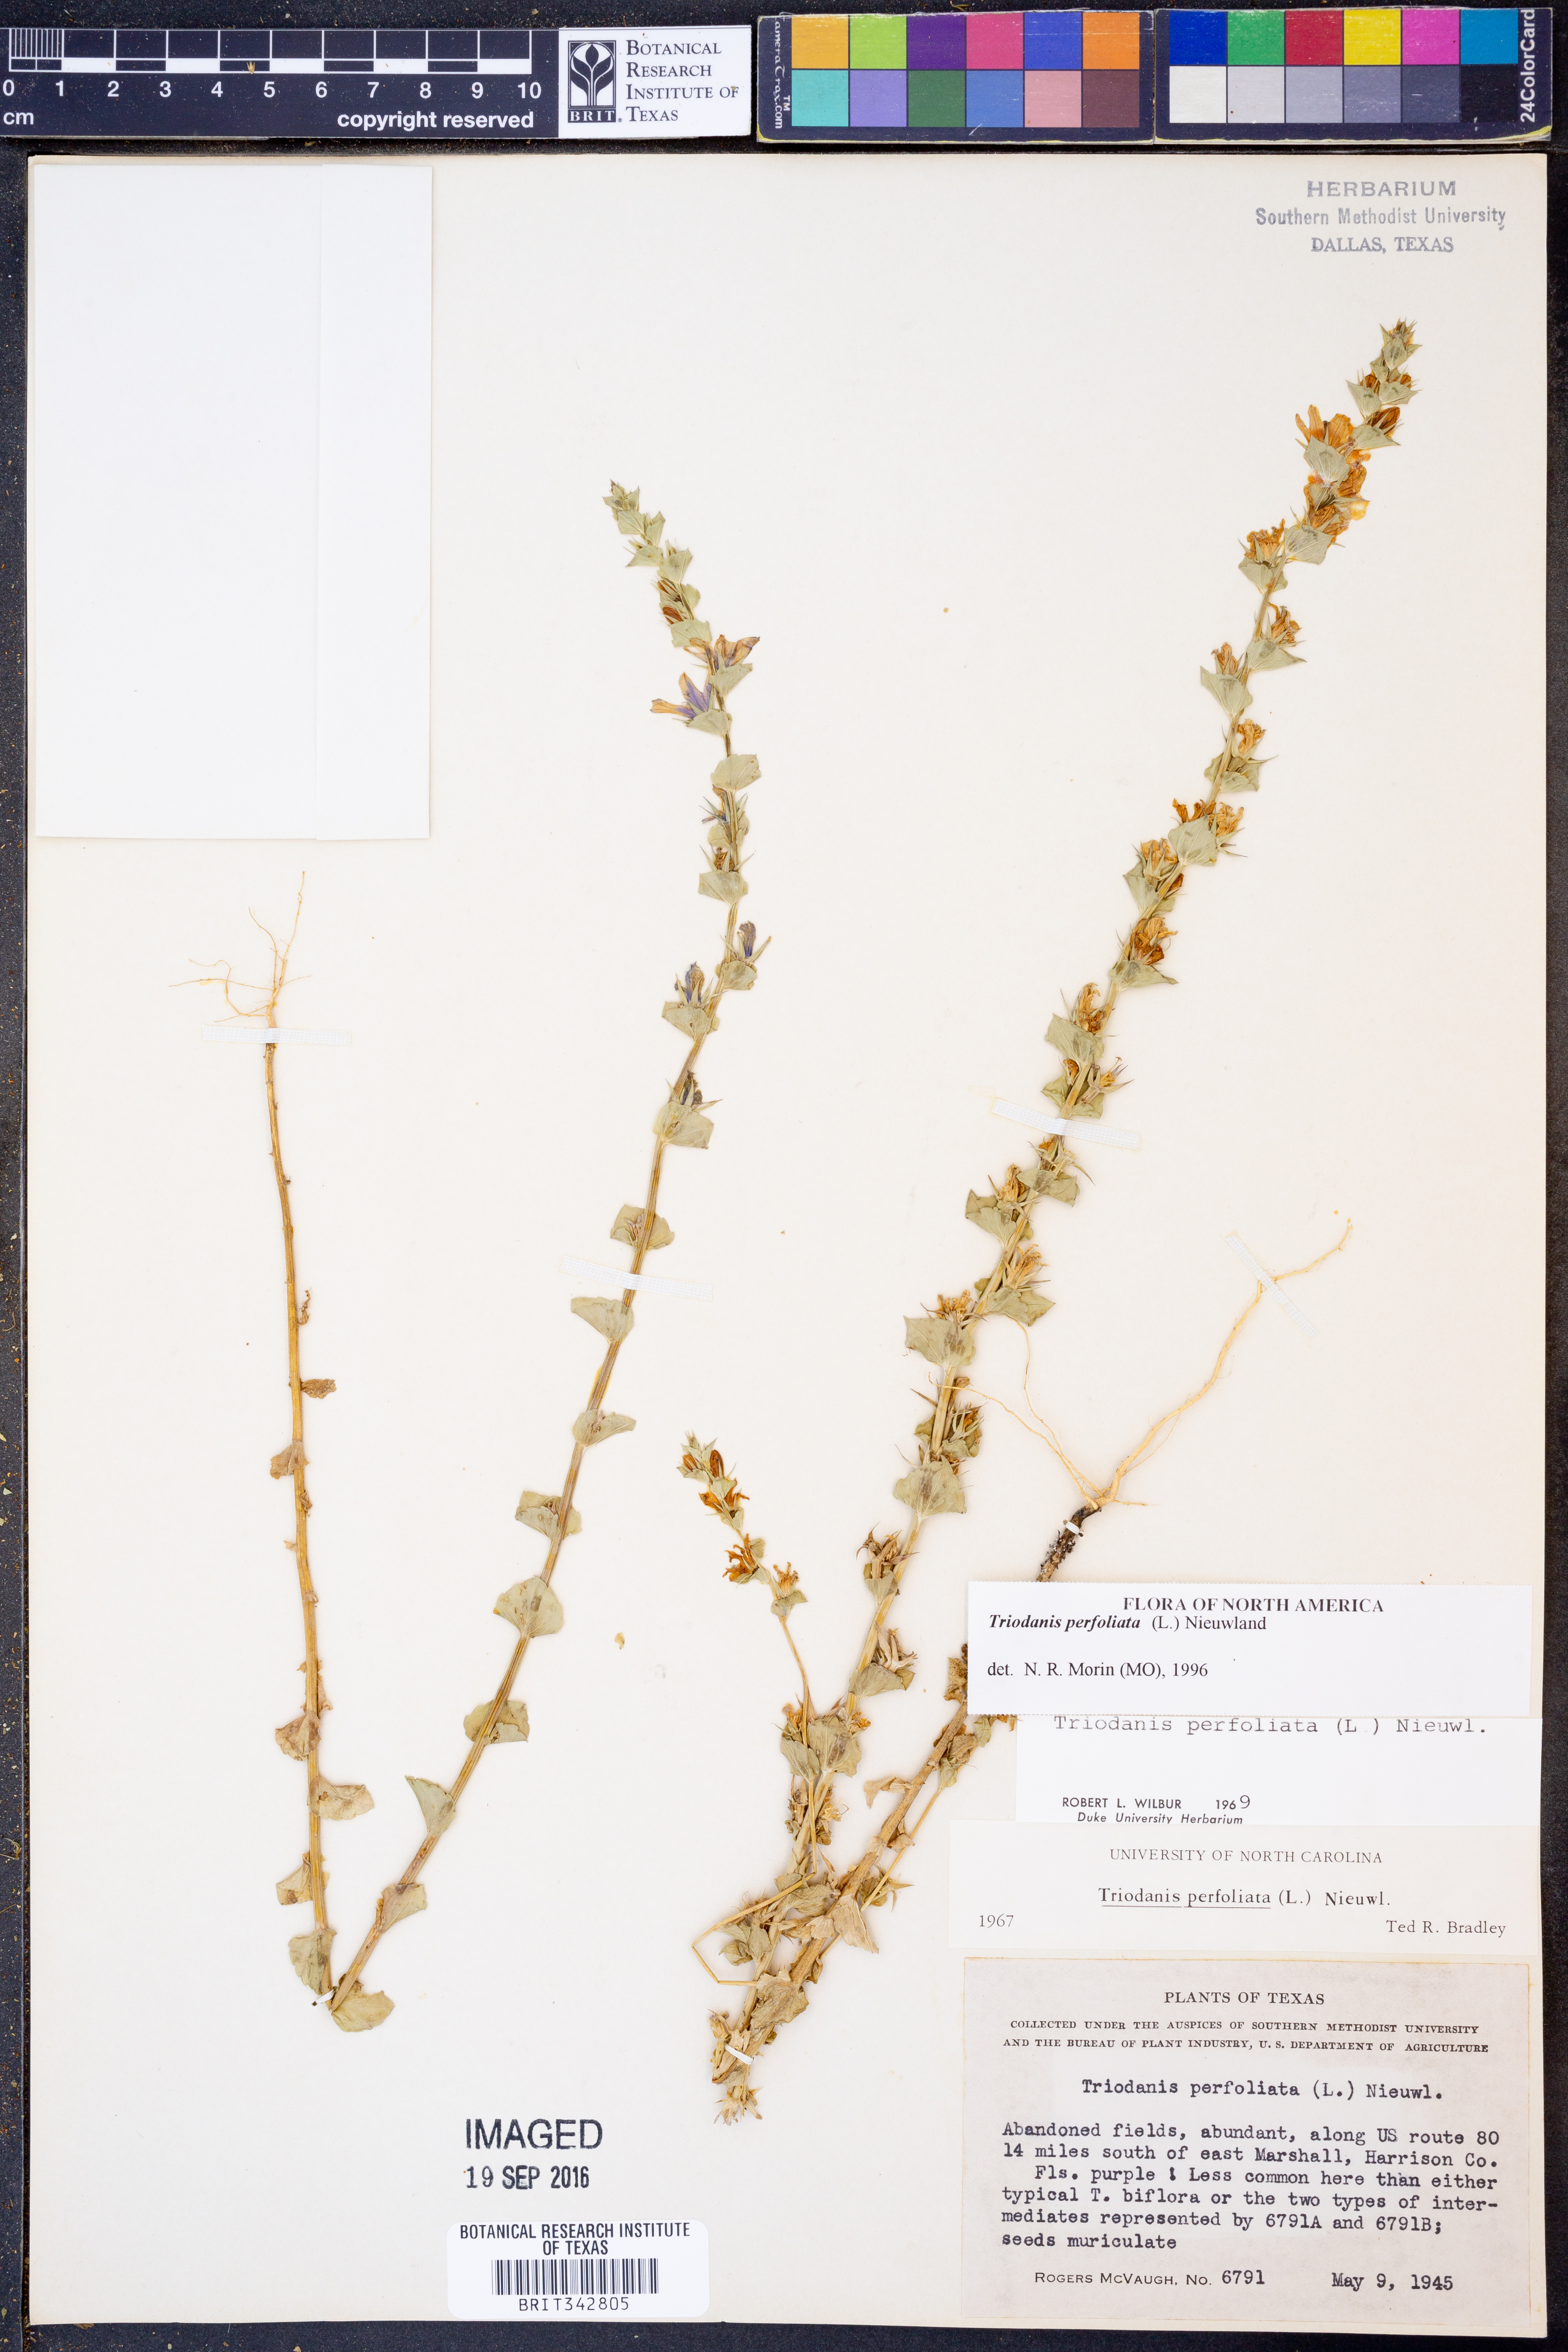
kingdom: Plantae
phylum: Tracheophyta
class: Magnoliopsida
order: Asterales
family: Campanulaceae
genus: Triodanis
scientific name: Triodanis perfoliata
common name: Clasping venus' looking-glass
